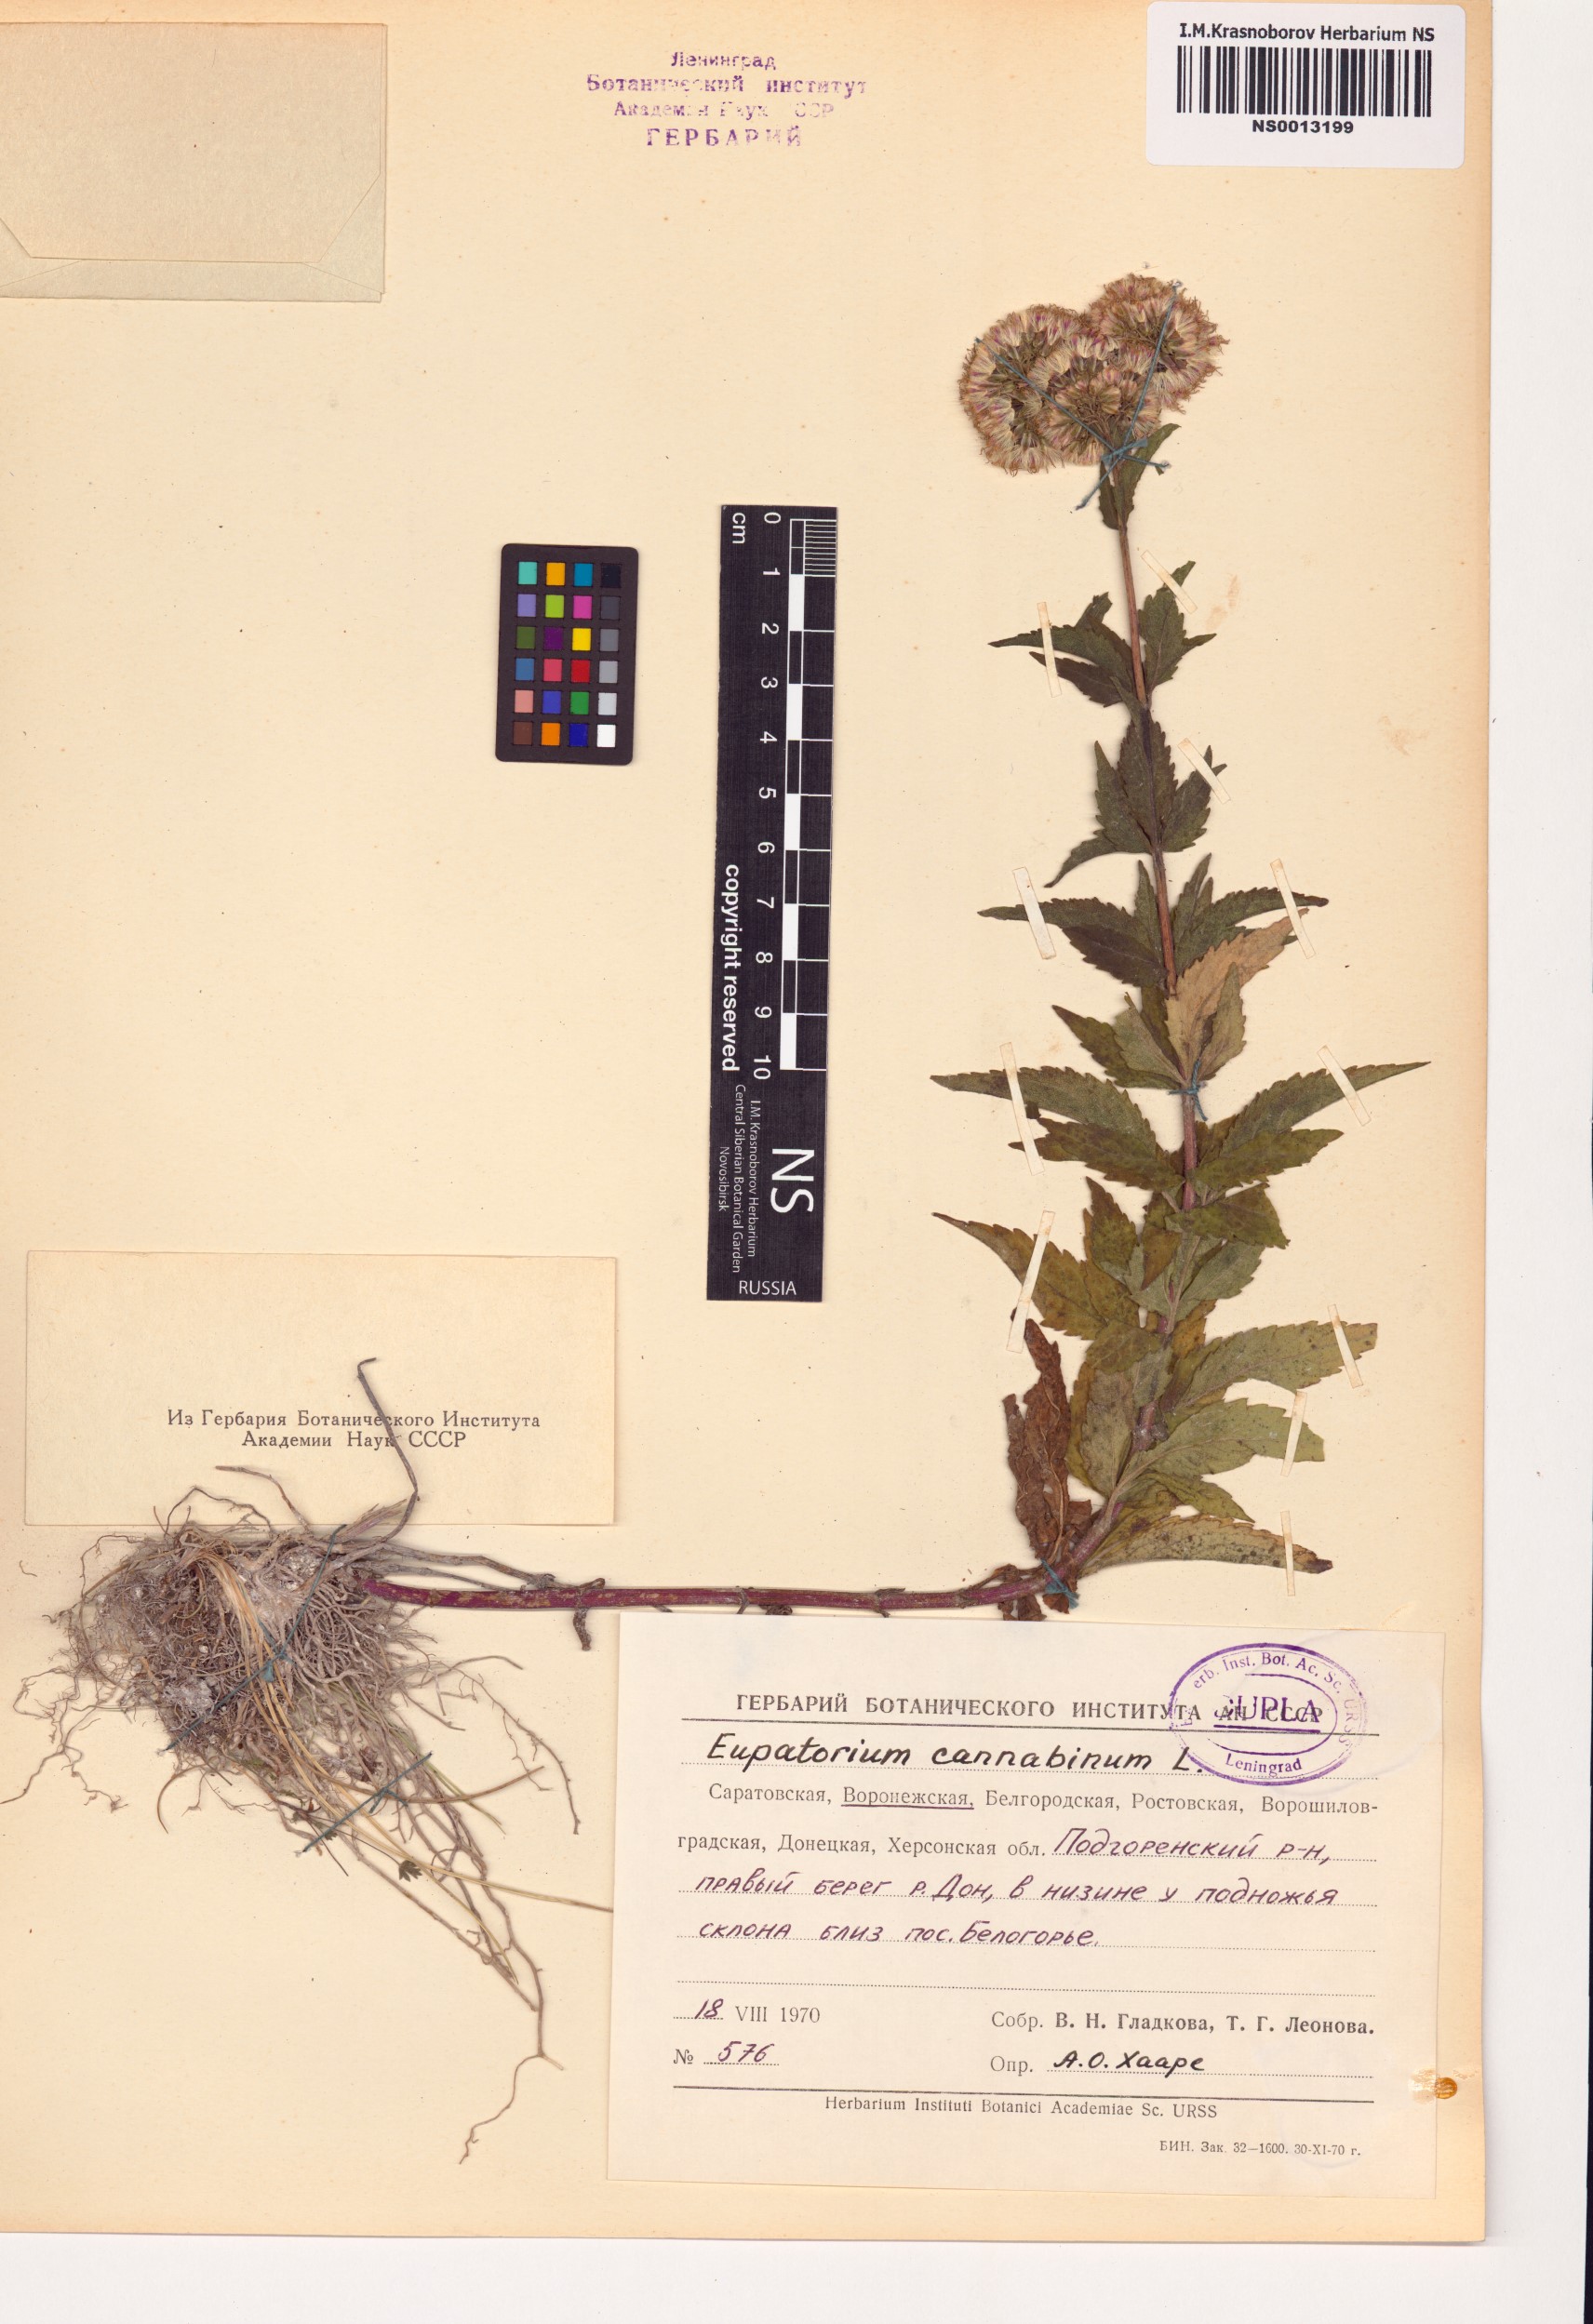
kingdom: Plantae
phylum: Tracheophyta
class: Magnoliopsida
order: Asterales
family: Asteraceae
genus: Eupatorium
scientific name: Eupatorium cannabinum
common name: Hemp-agrimony
